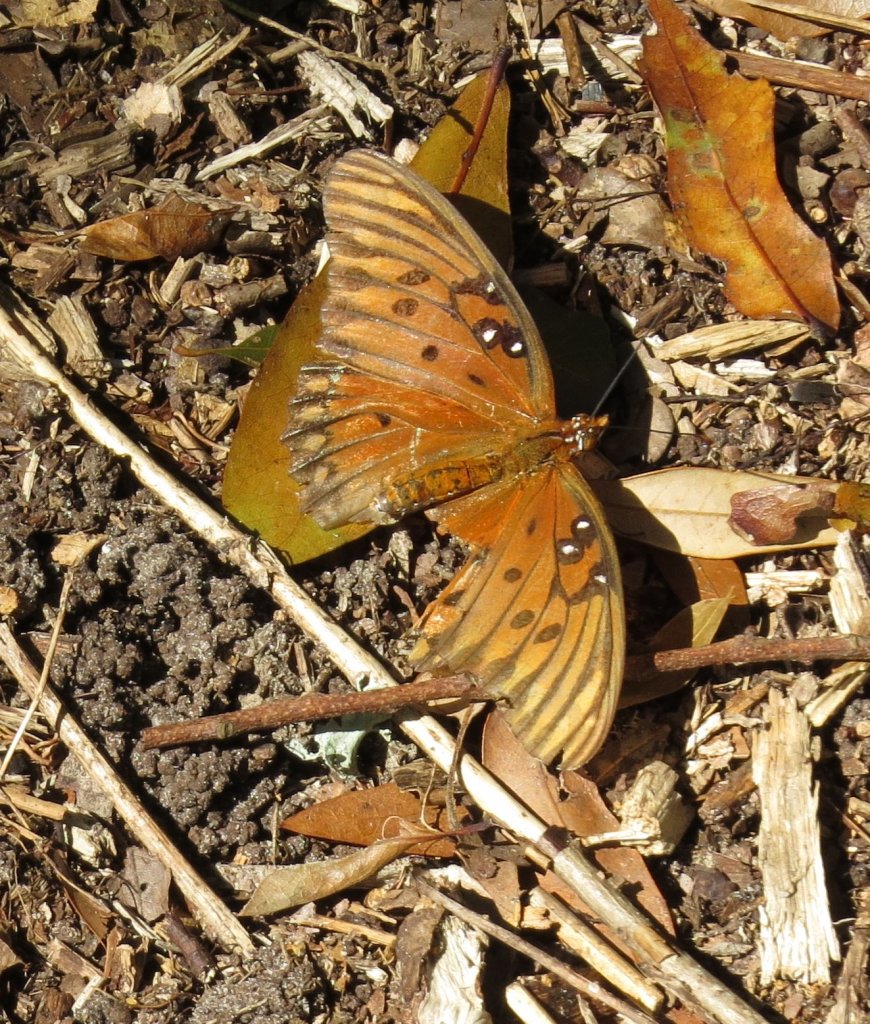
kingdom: Animalia
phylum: Arthropoda
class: Insecta
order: Lepidoptera
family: Nymphalidae
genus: Dione
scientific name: Dione vanillae
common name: Gulf Fritillary
